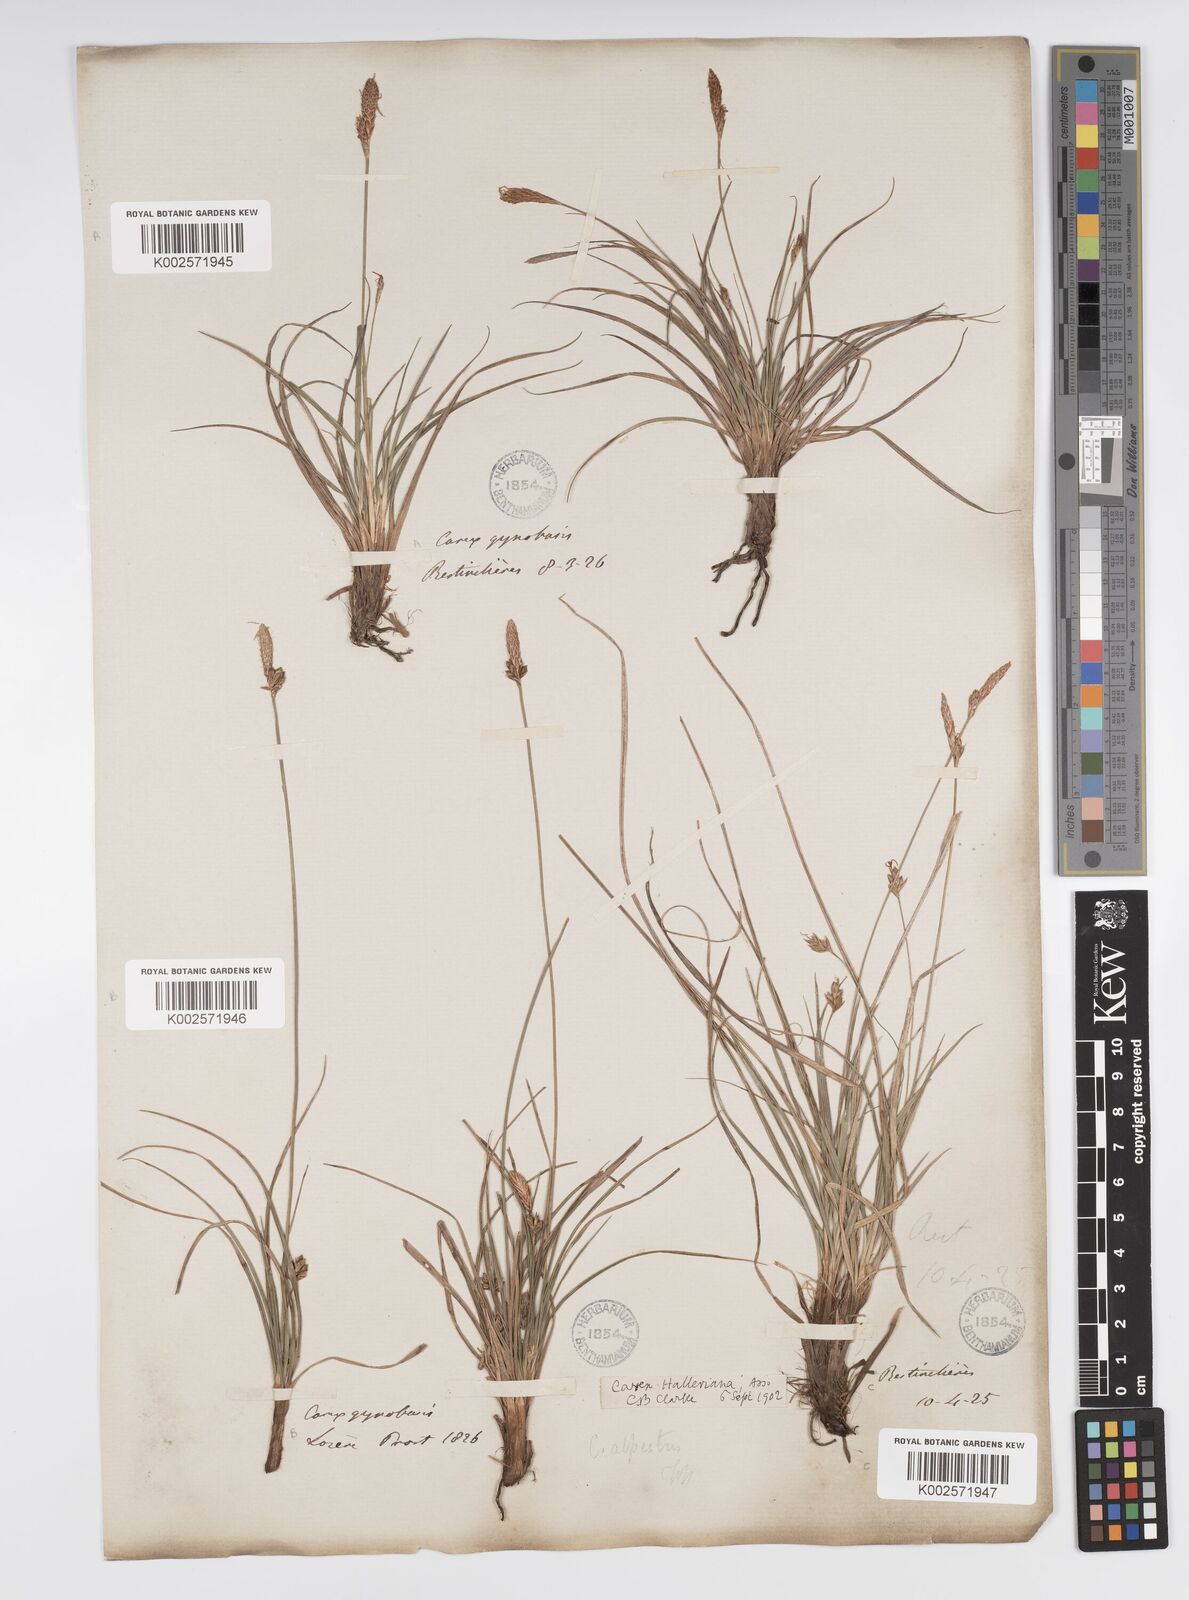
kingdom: Plantae
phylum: Tracheophyta
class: Liliopsida
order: Poales
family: Cyperaceae
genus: Carex
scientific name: Carex halleriana
